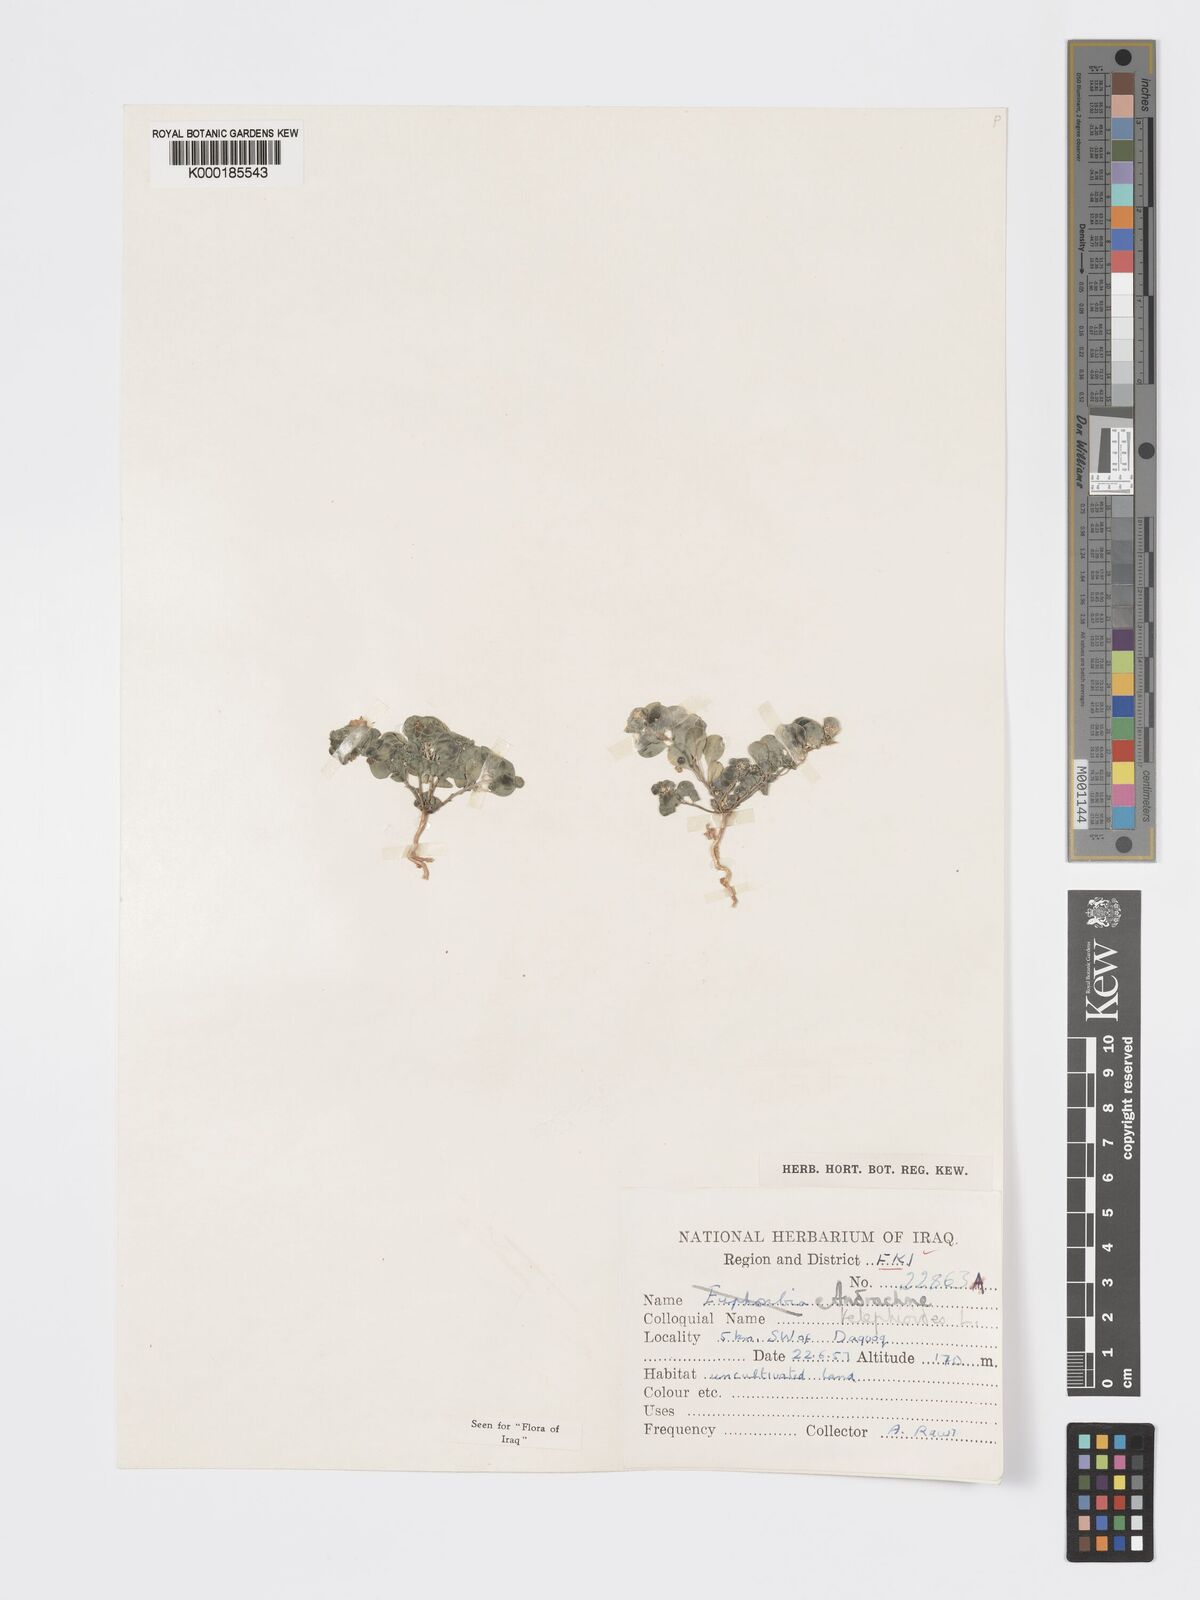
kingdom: Plantae
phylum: Tracheophyta
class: Magnoliopsida
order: Malpighiales
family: Phyllanthaceae
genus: Andrachne
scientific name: Andrachne telephioides
